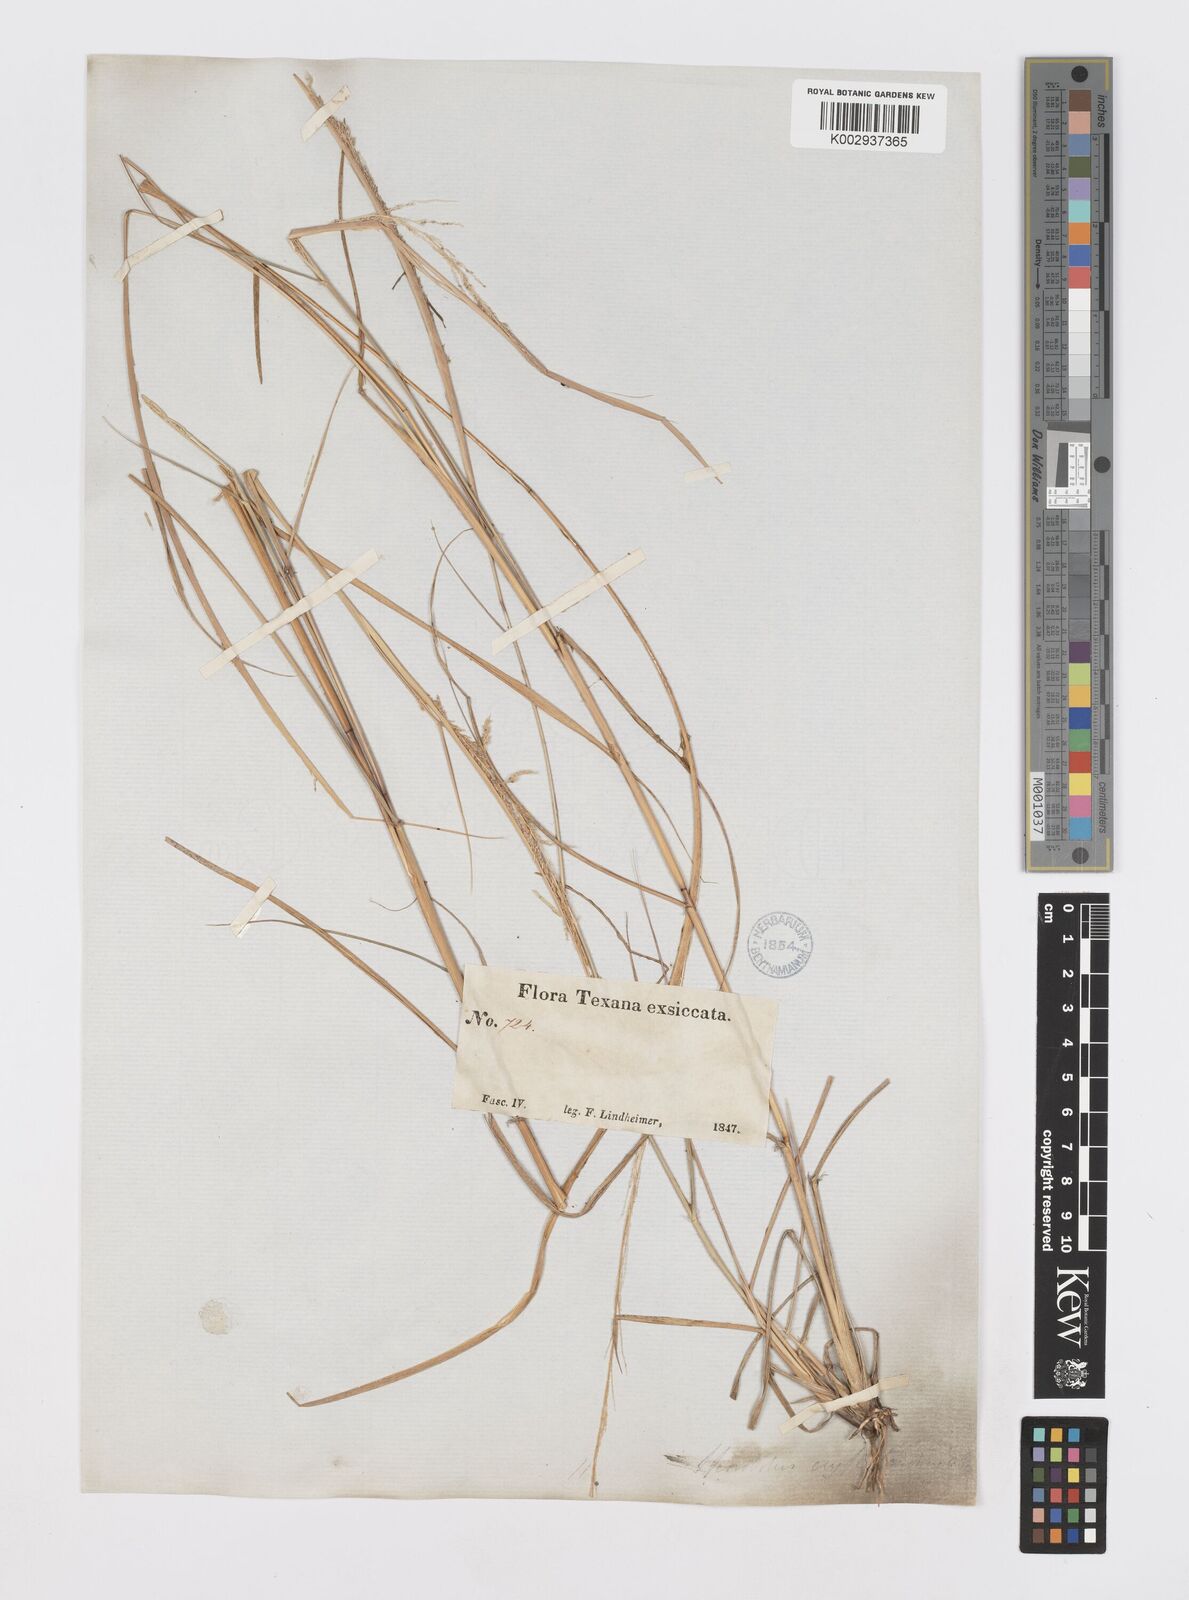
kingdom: Plantae
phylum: Tracheophyta
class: Liliopsida
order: Poales
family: Poaceae
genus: Sporobolus
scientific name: Sporobolus cryptandrus
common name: Sand dropseed
